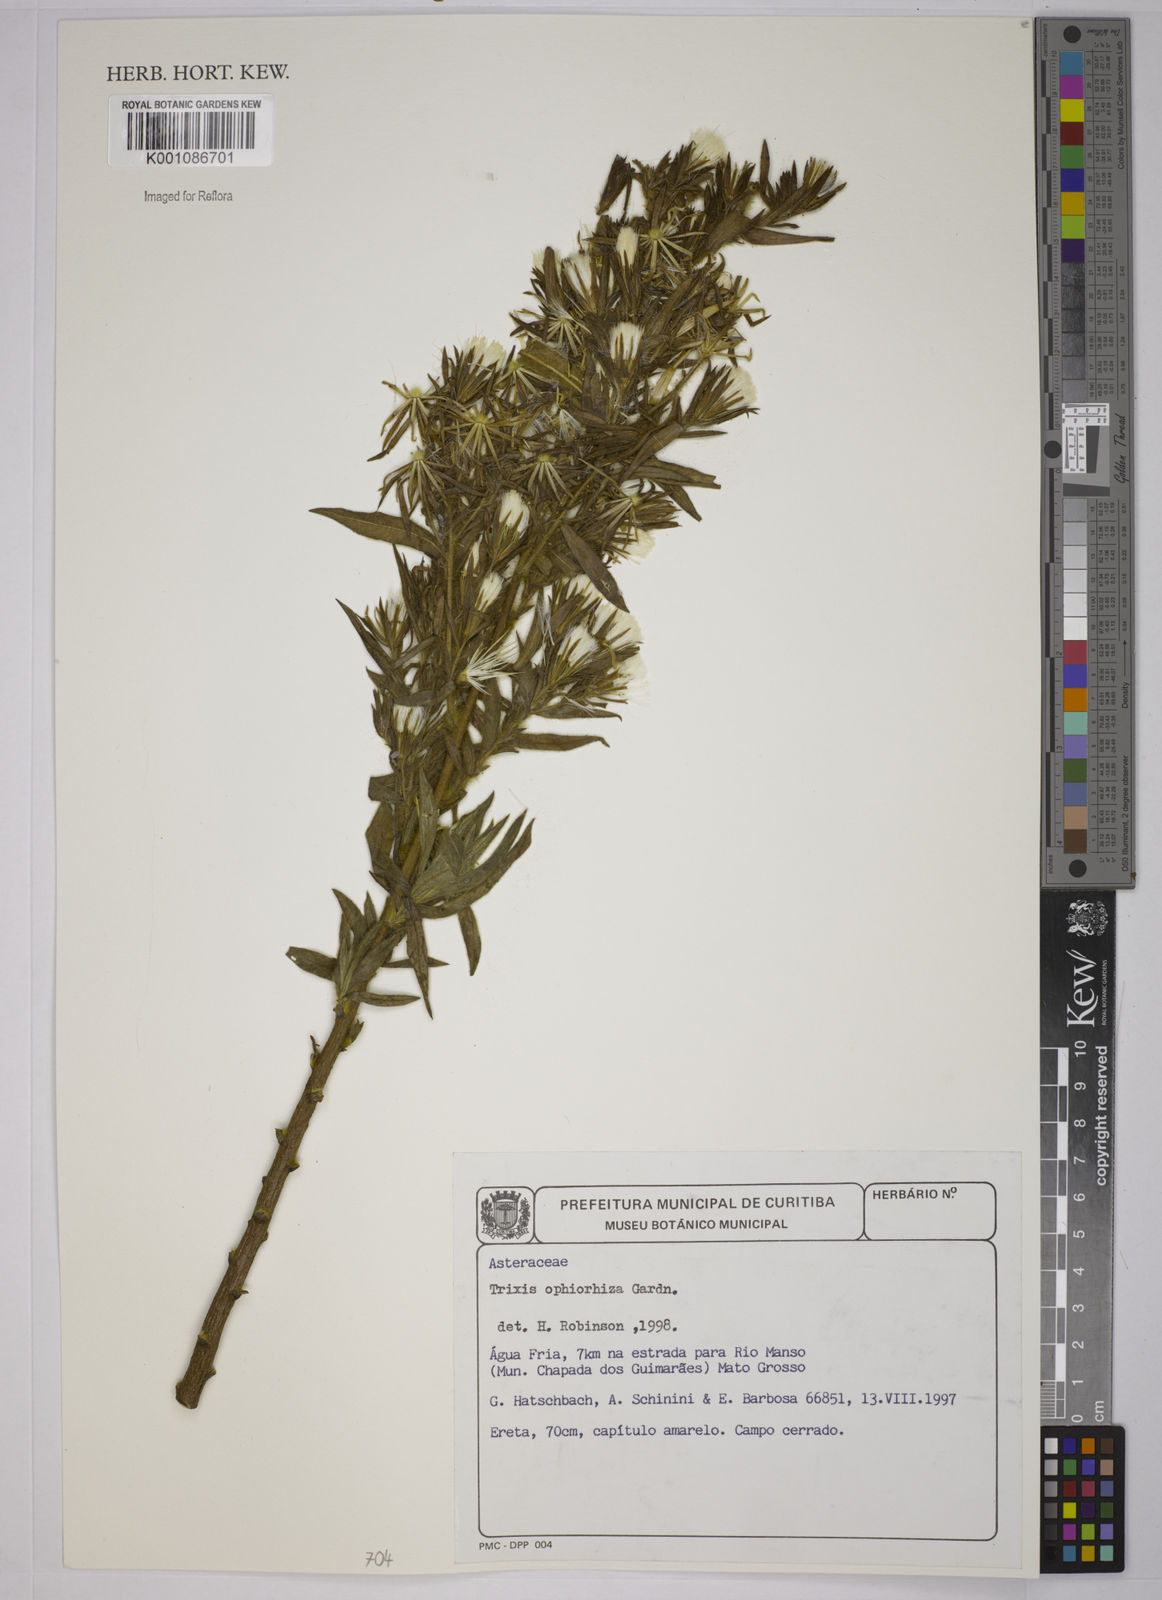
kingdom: Plantae
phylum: Tracheophyta
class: Magnoliopsida
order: Asterales
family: Asteraceae
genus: Trixis
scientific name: Trixis ophiorhiza
